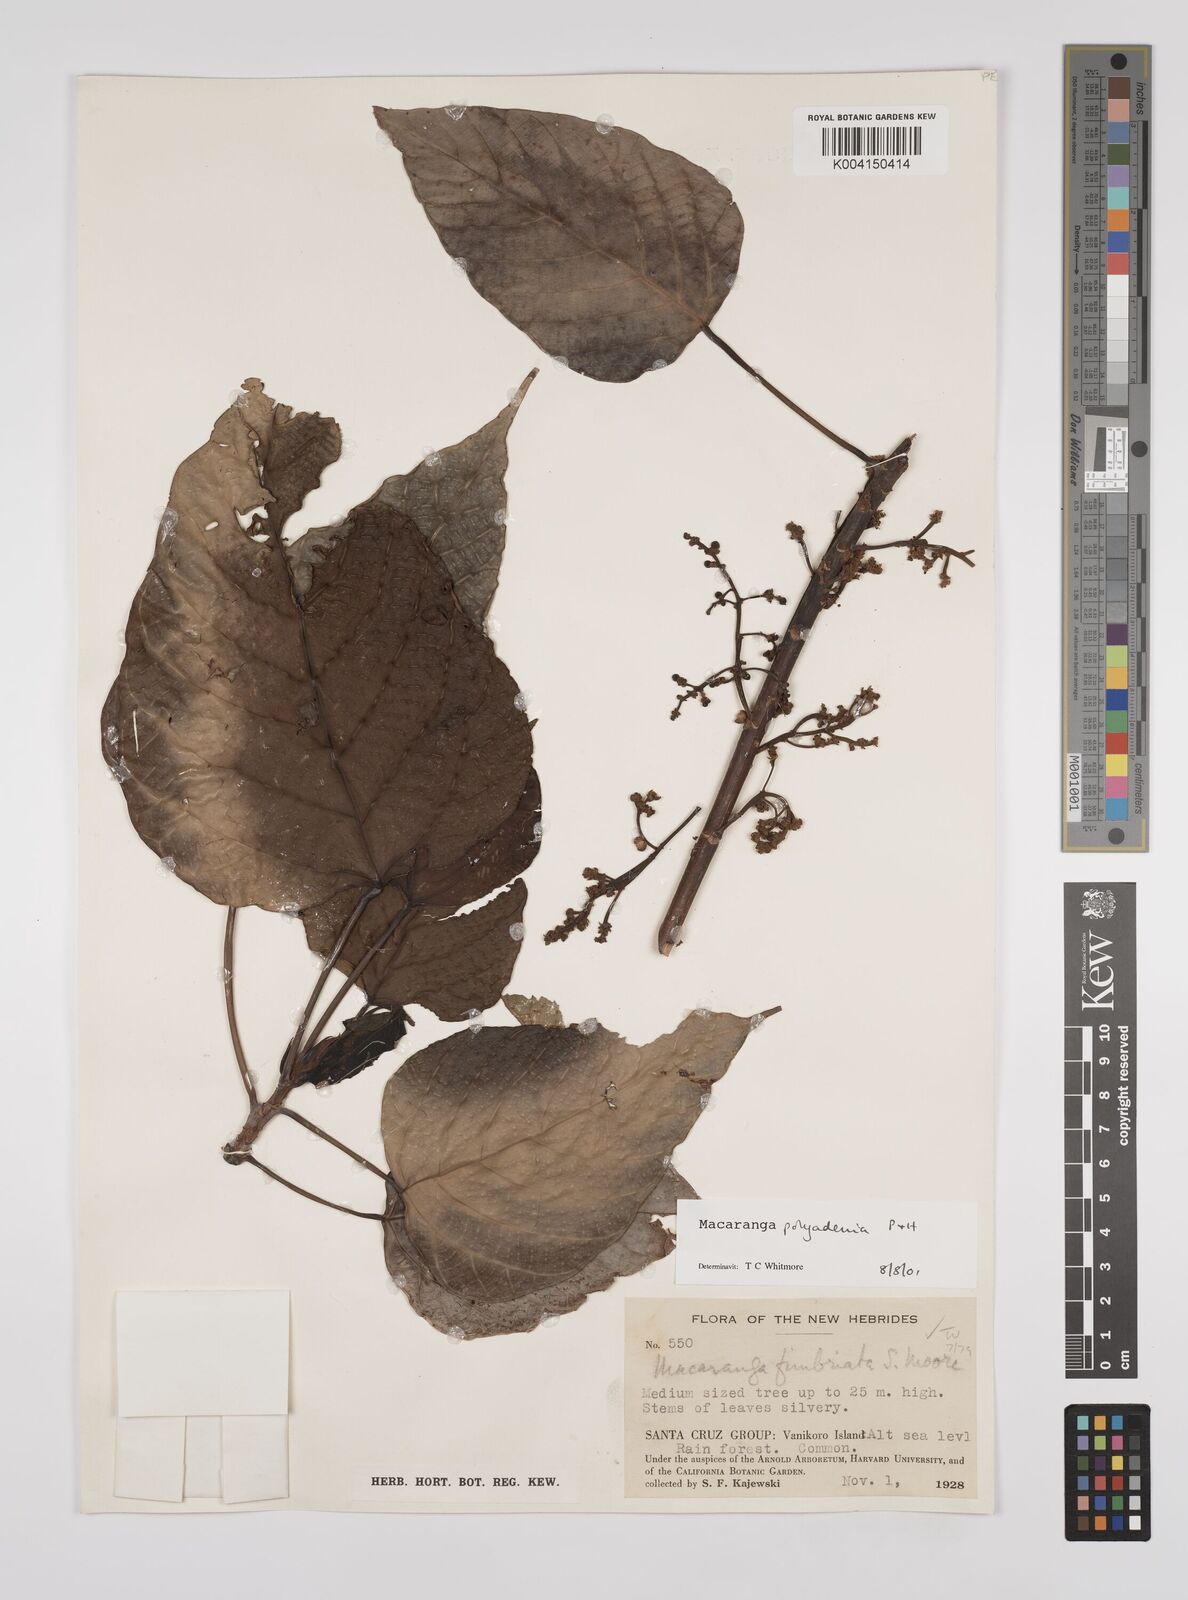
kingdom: Plantae
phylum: Tracheophyta
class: Magnoliopsida
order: Malpighiales
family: Euphorbiaceae
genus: Macaranga
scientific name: Macaranga polyadenia
